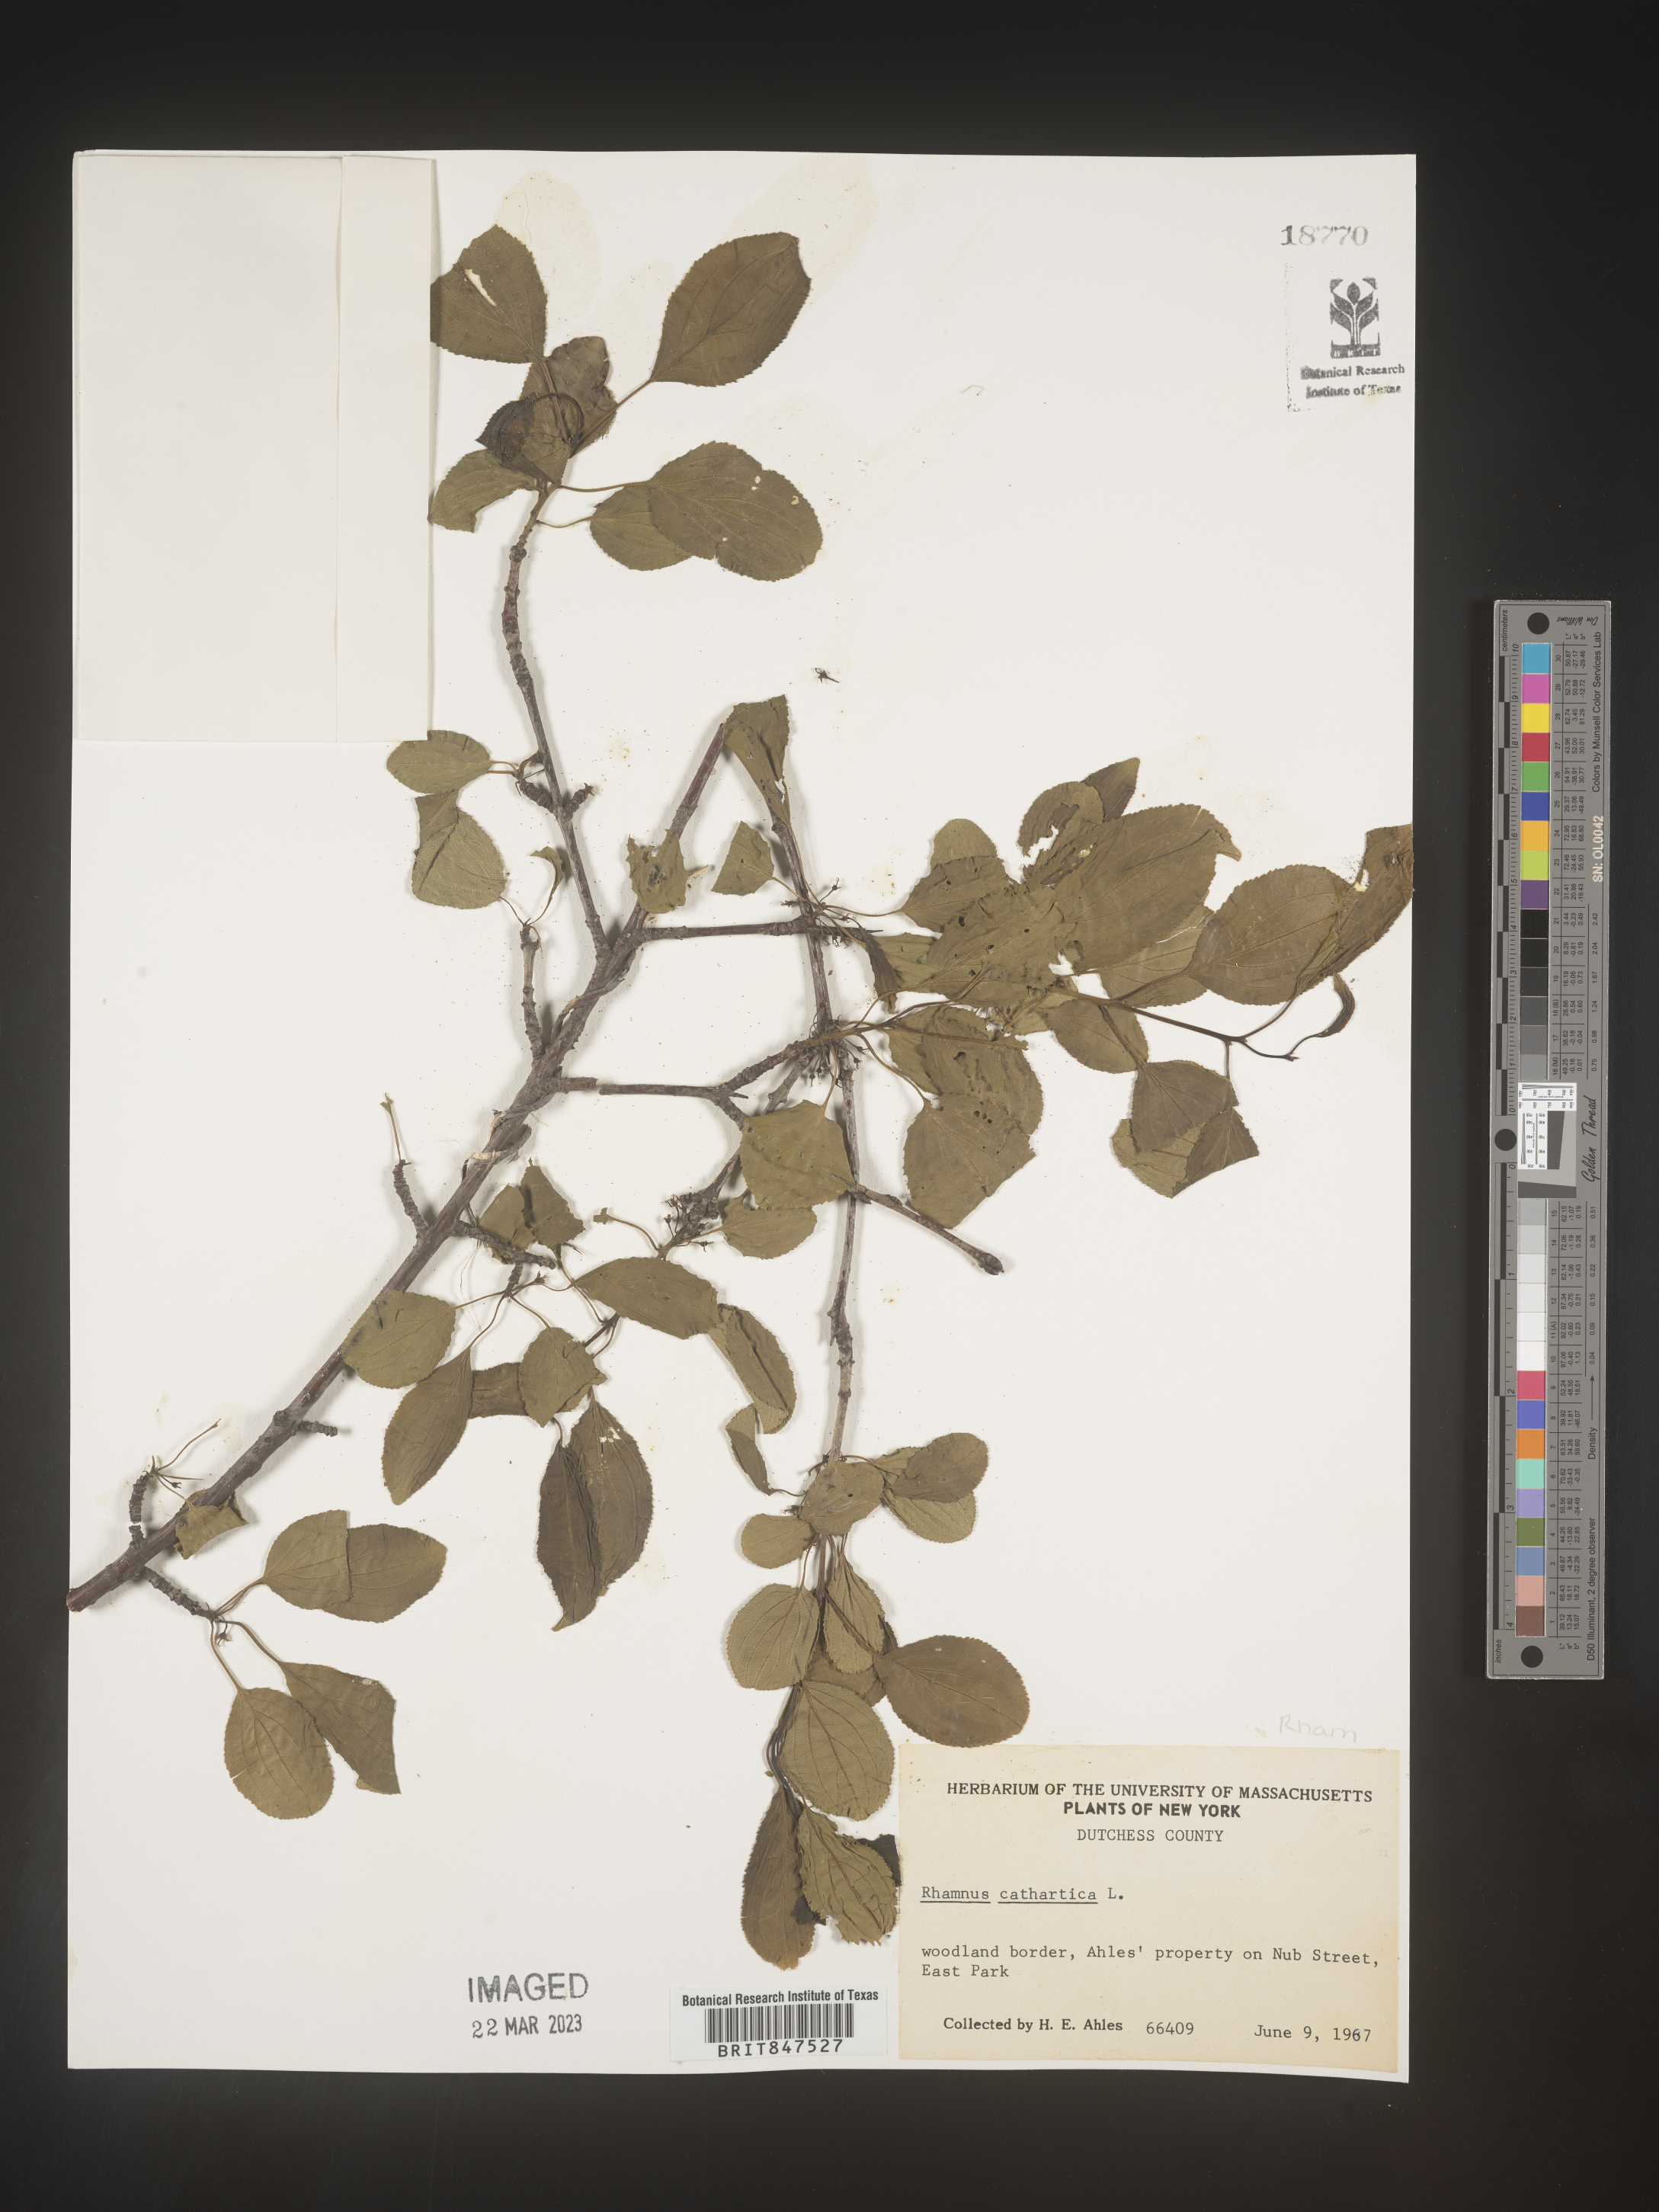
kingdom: Plantae
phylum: Tracheophyta
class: Magnoliopsida
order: Rosales
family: Rhamnaceae
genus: Rhamnus
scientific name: Rhamnus cathartica
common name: Common buckthorn
